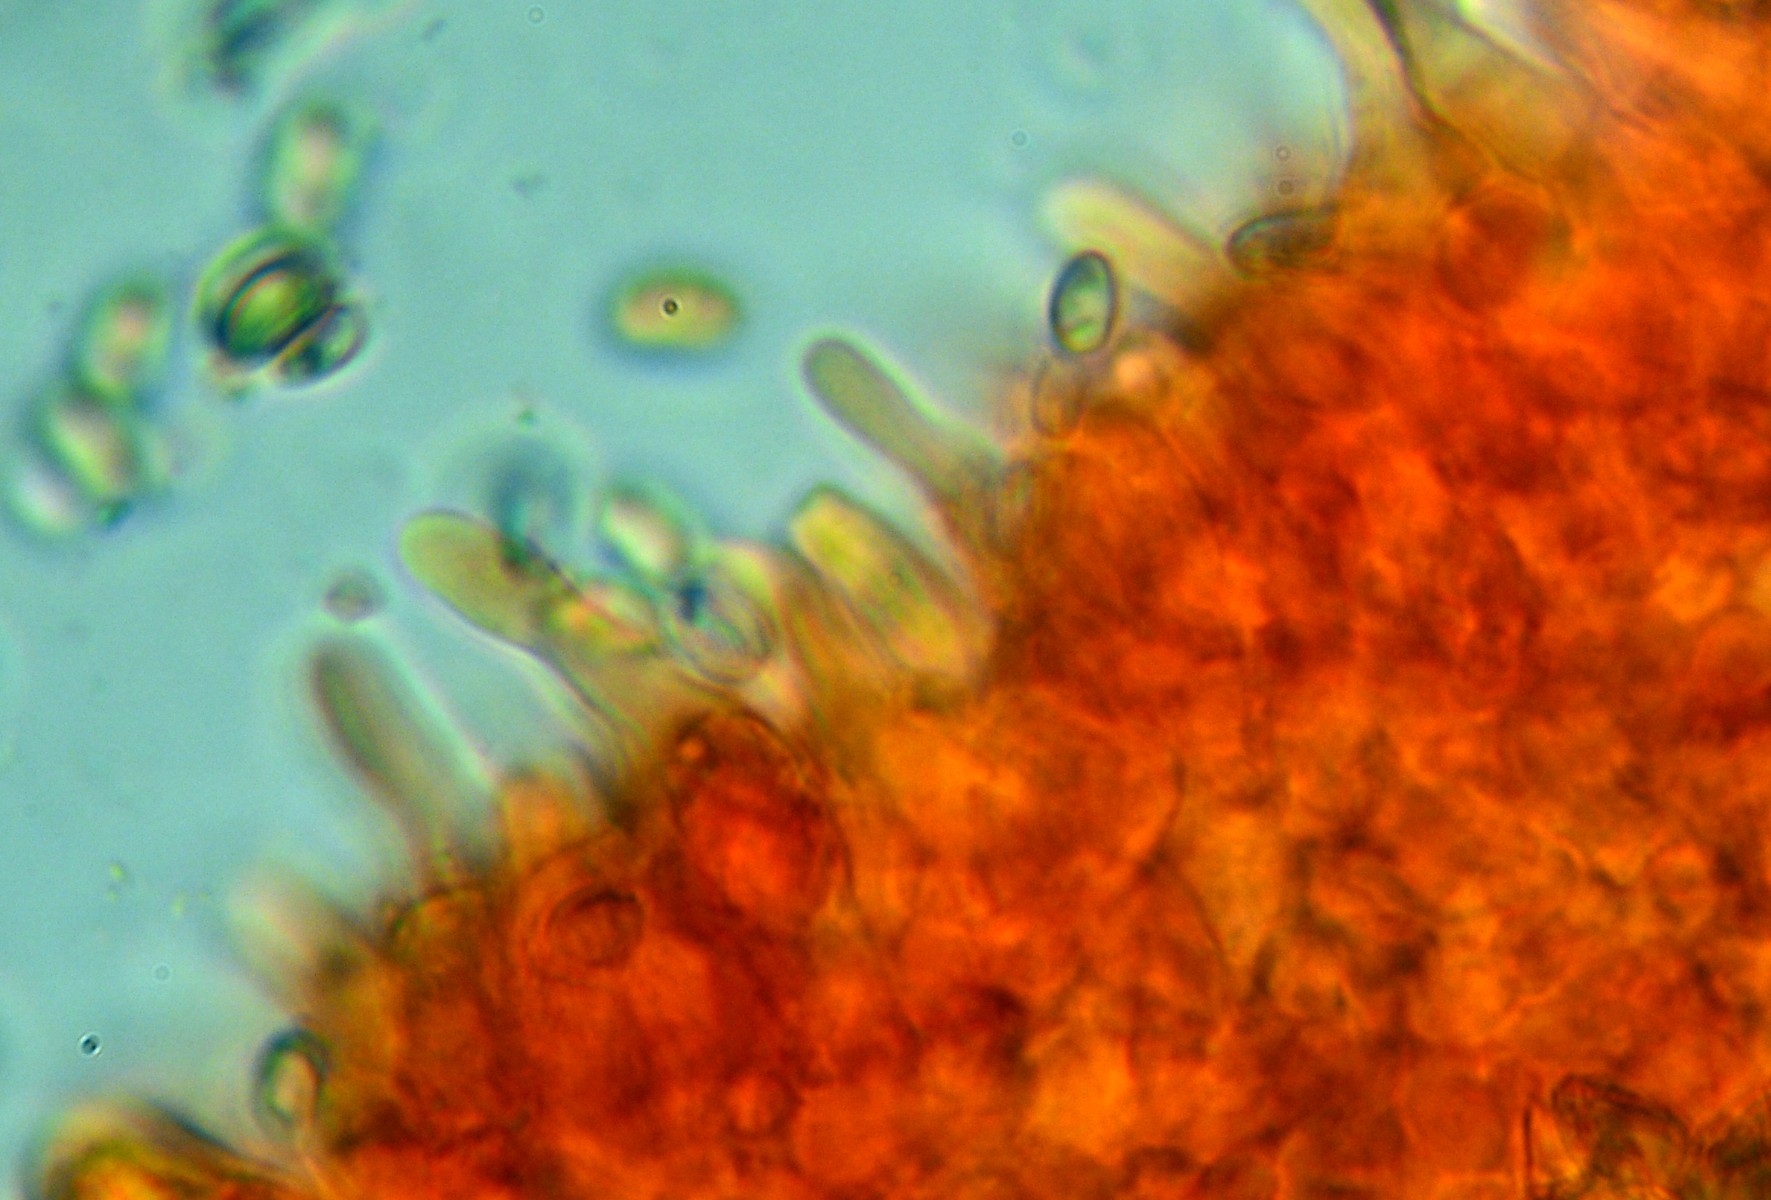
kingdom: Fungi
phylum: Basidiomycota
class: Agaricomycetes
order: Agaricales
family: Strophariaceae
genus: Pholiota
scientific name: Pholiota conissans
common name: pile-skælhat
